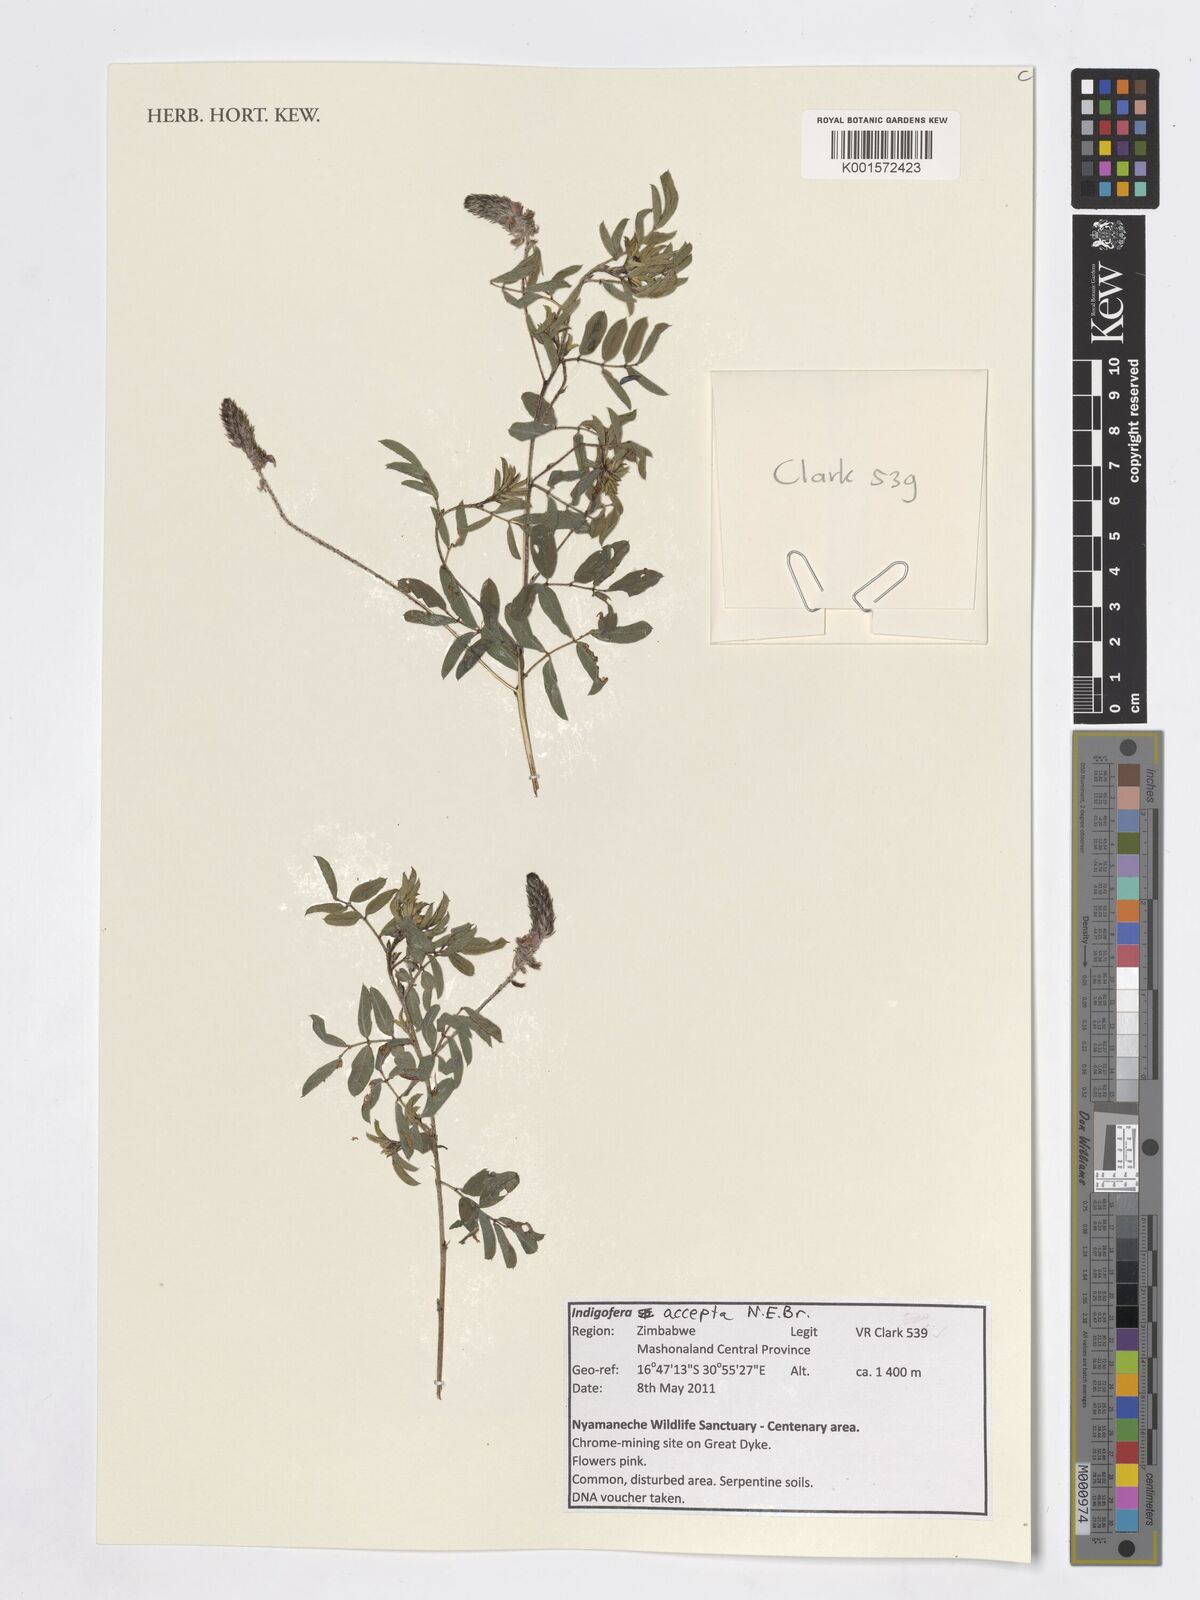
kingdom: Plantae
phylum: Tracheophyta
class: Magnoliopsida
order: Fabales
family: Fabaceae
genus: Indigofera
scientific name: Indigofera setiflora
